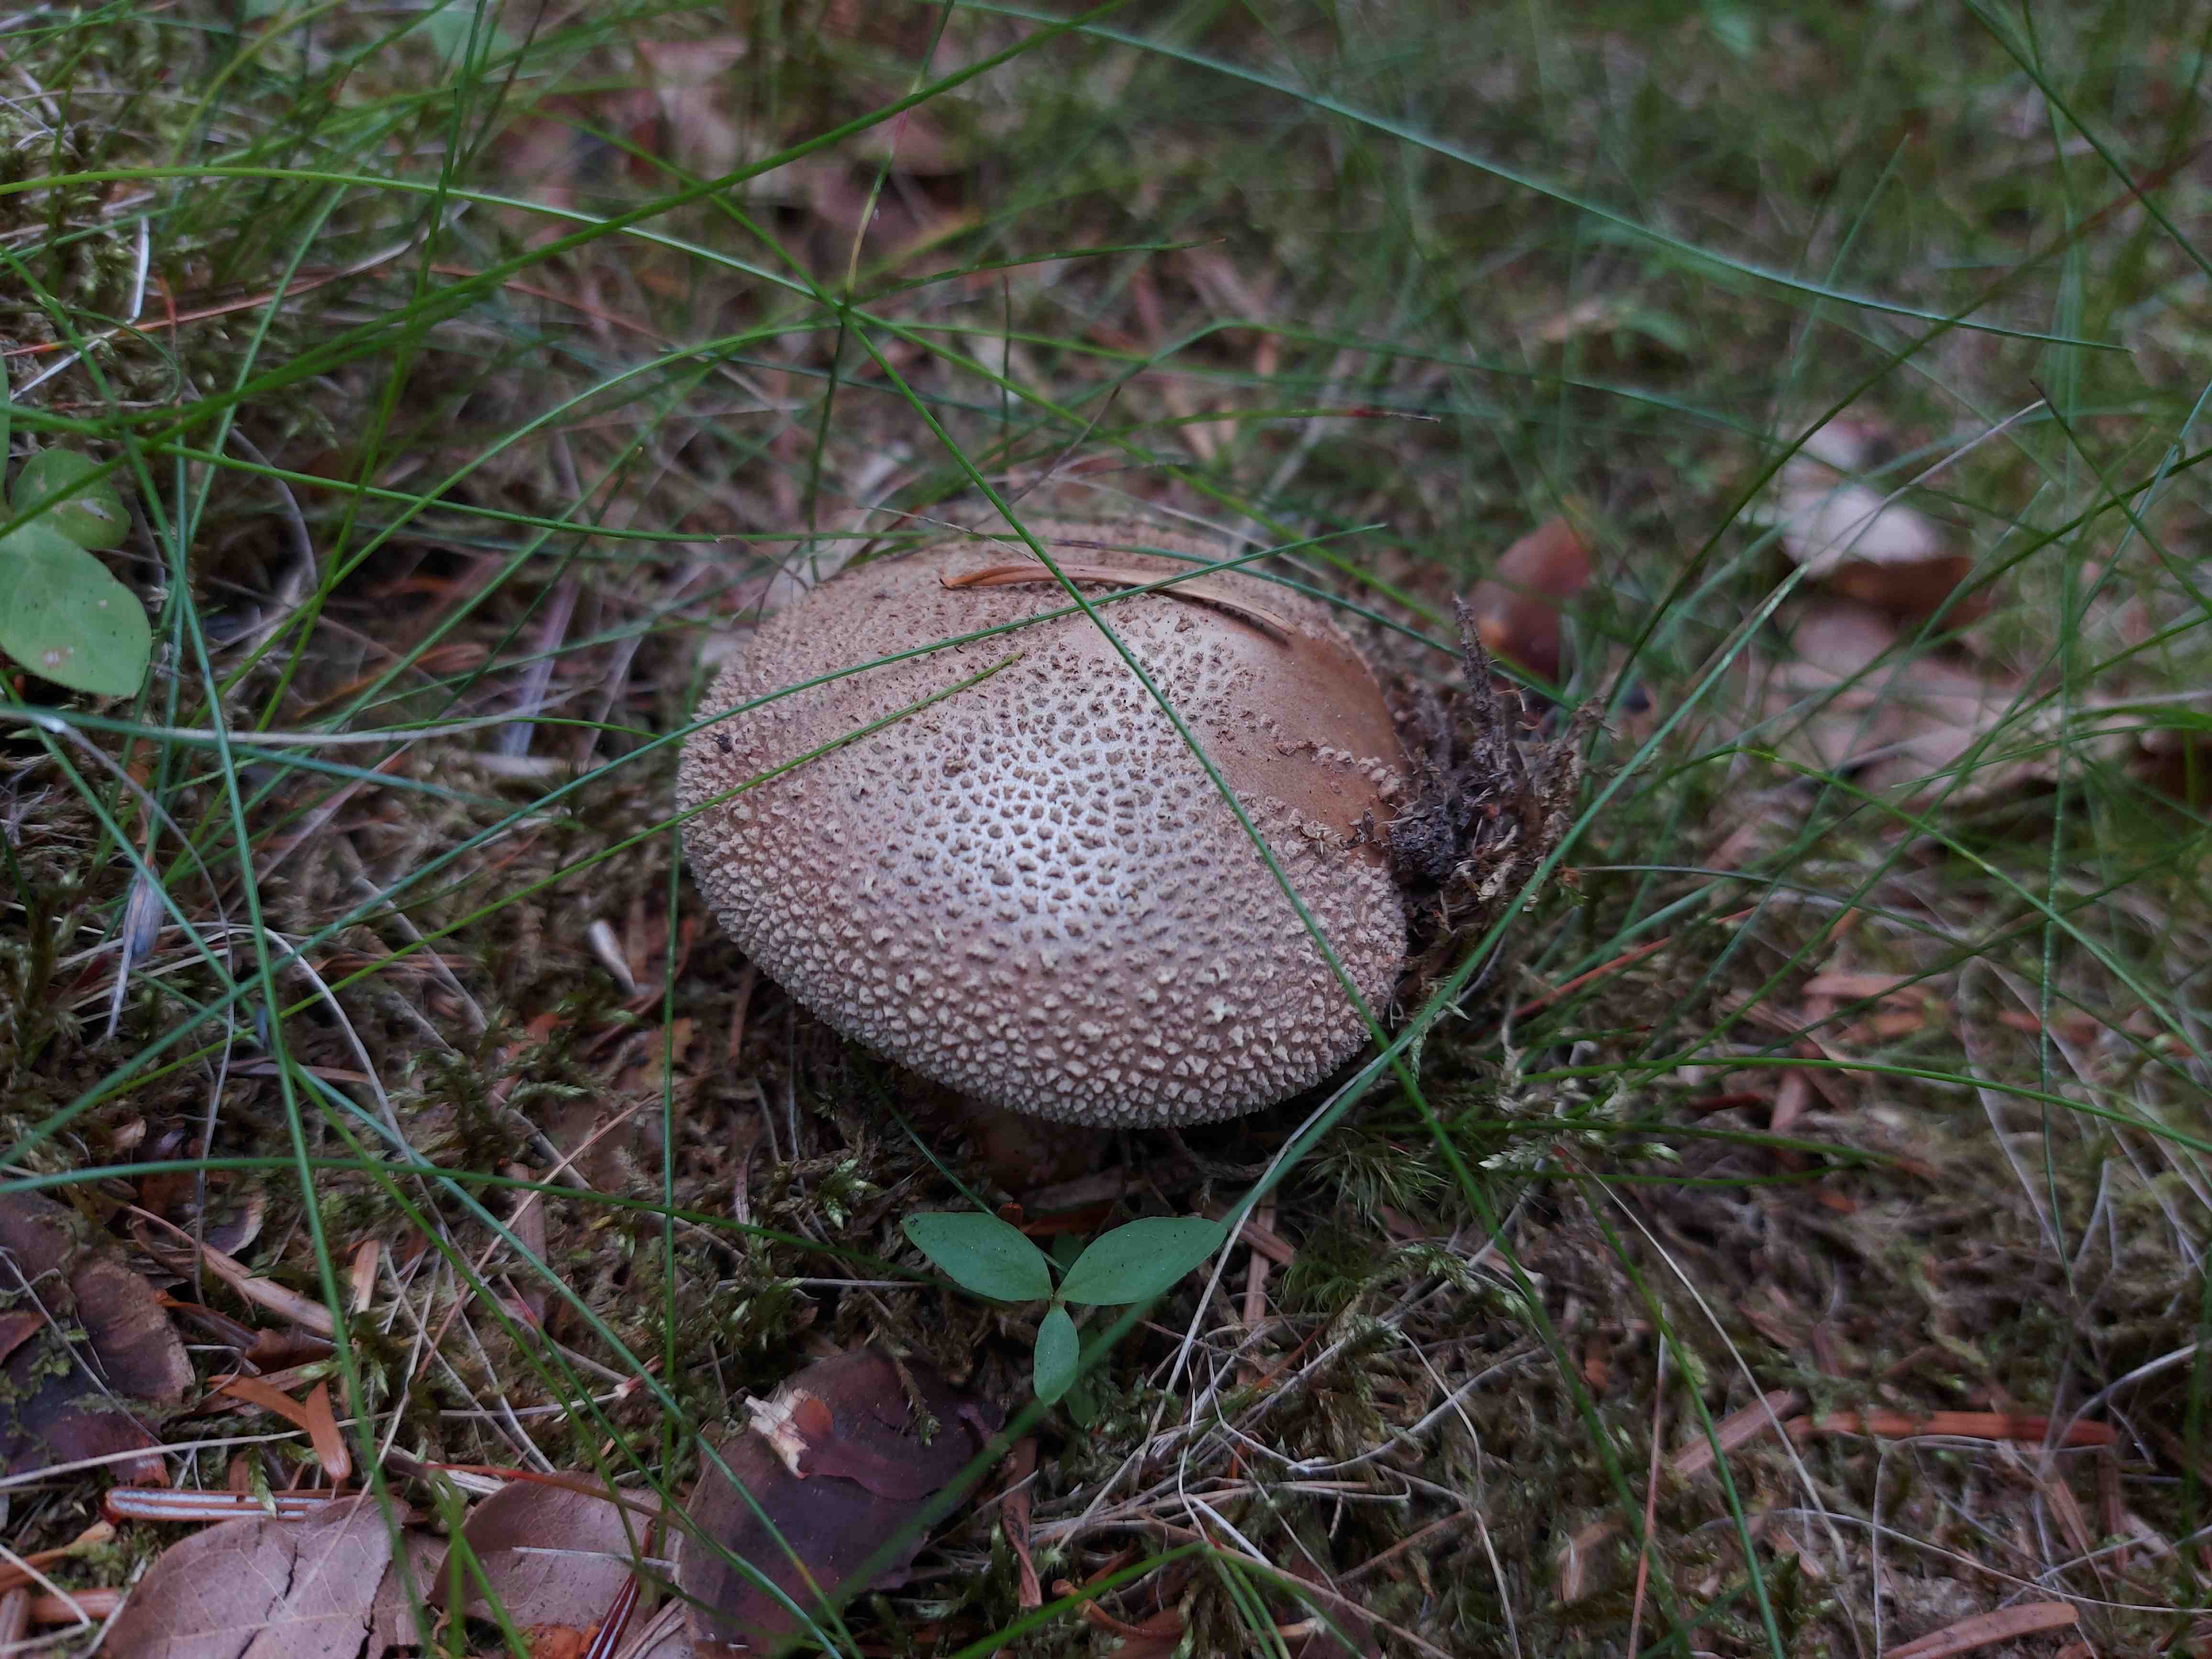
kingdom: Fungi
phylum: Basidiomycota
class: Agaricomycetes
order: Agaricales
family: Amanitaceae
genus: Amanita
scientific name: Amanita rubescens
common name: rødmende fluesvamp
